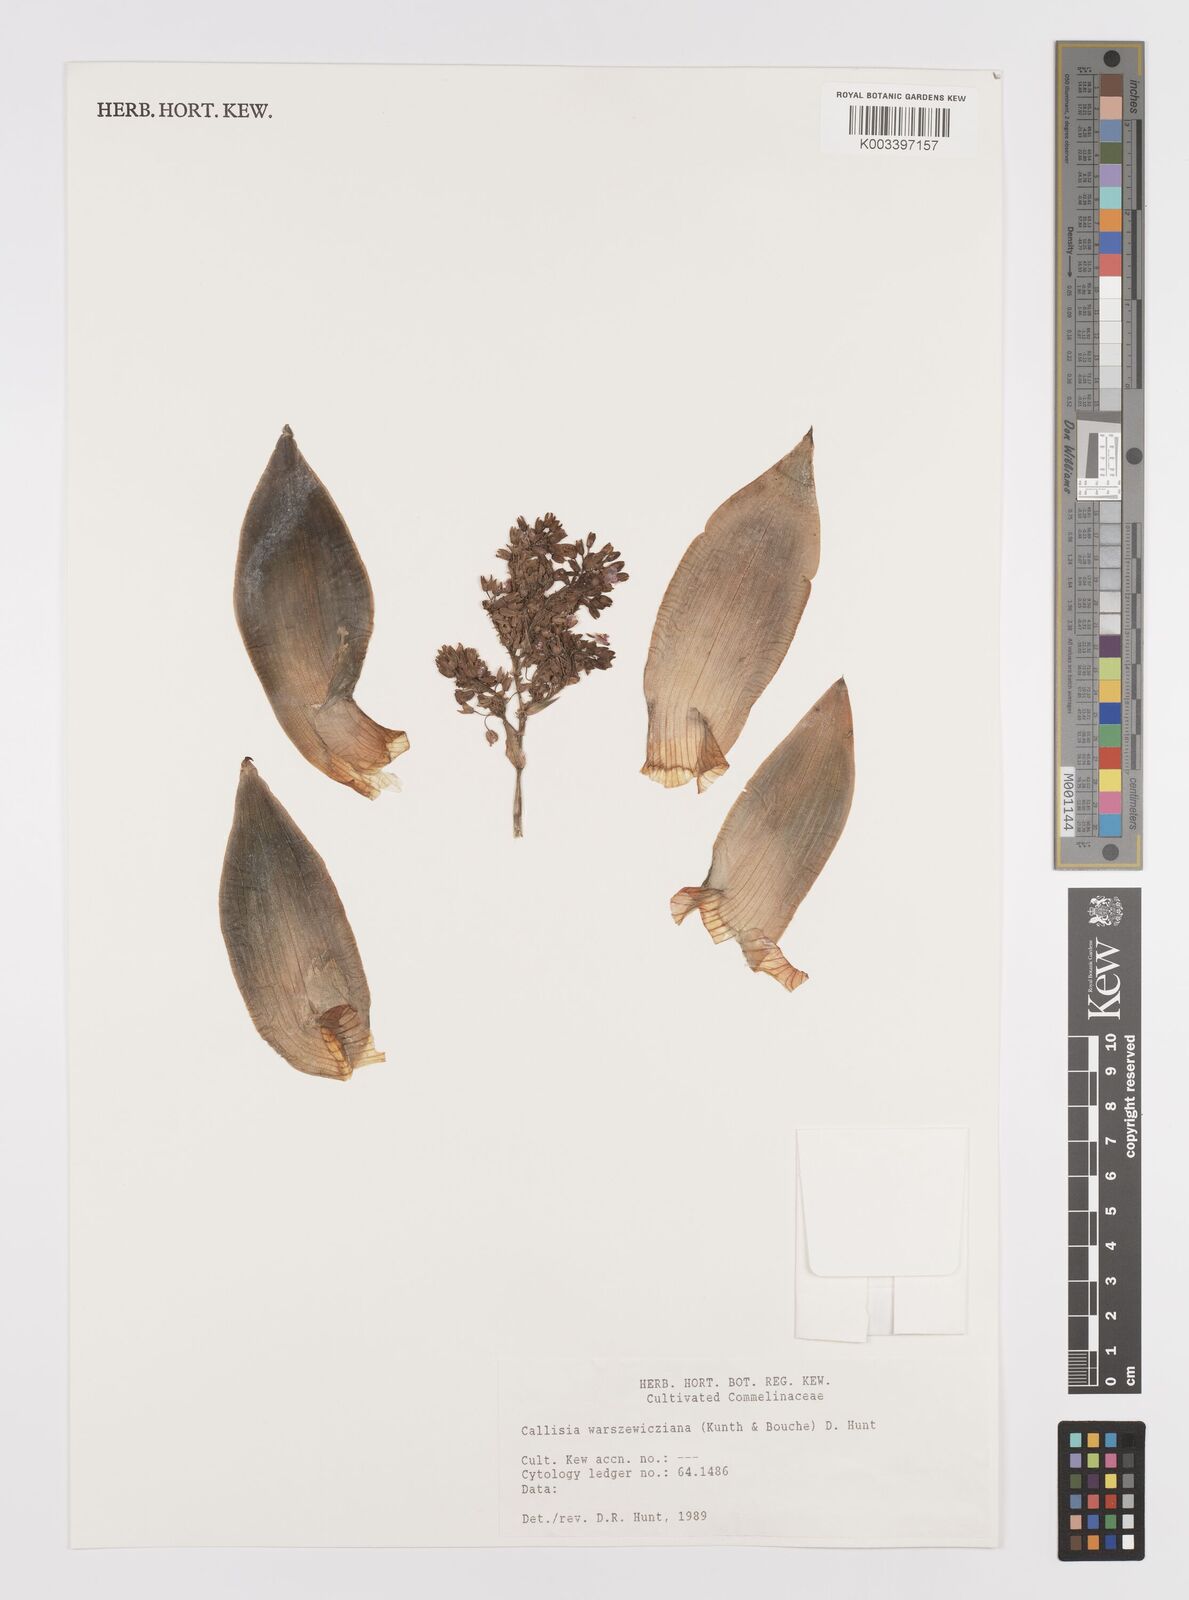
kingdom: Plantae
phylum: Tracheophyta
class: Liliopsida
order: Commelinales
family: Commelinaceae
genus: Callisia
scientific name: Callisia warszewicziana
